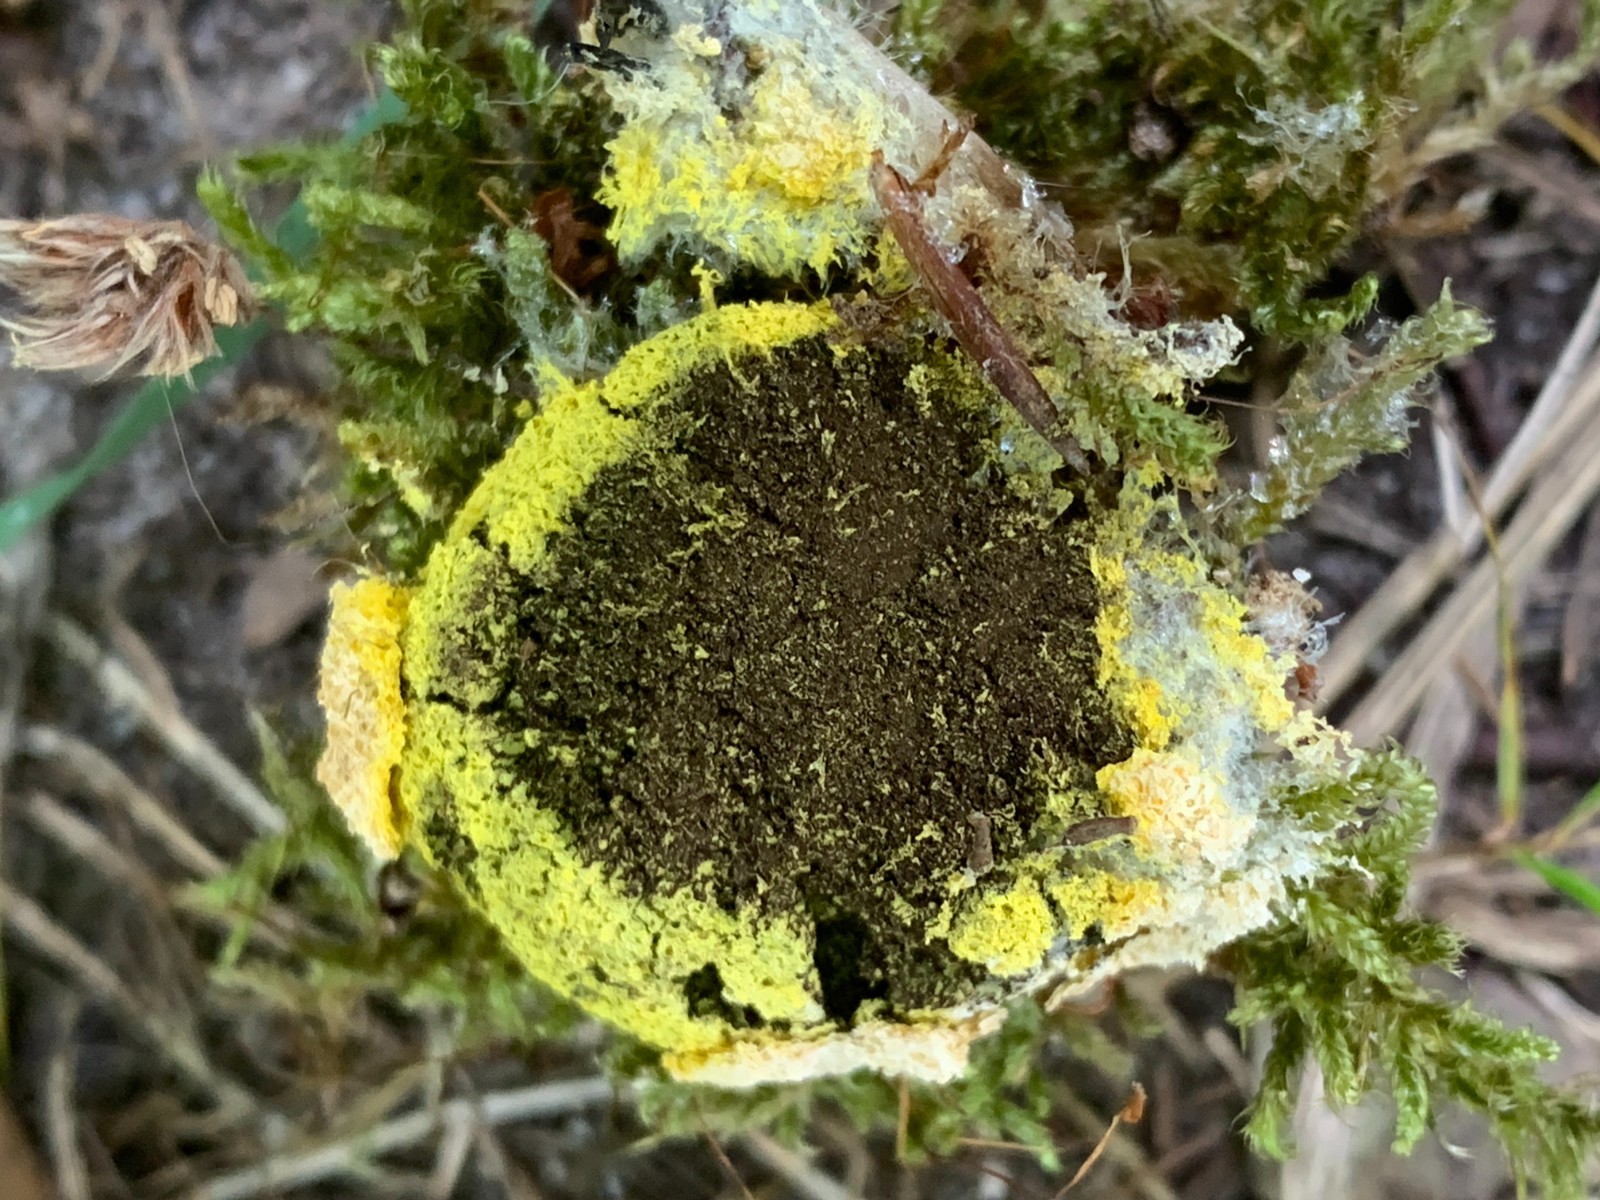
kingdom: Protozoa
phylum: Mycetozoa
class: Myxomycetes
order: Physarales
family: Physaraceae
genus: Fuligo
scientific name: Fuligo septica
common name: gul troldsmør
